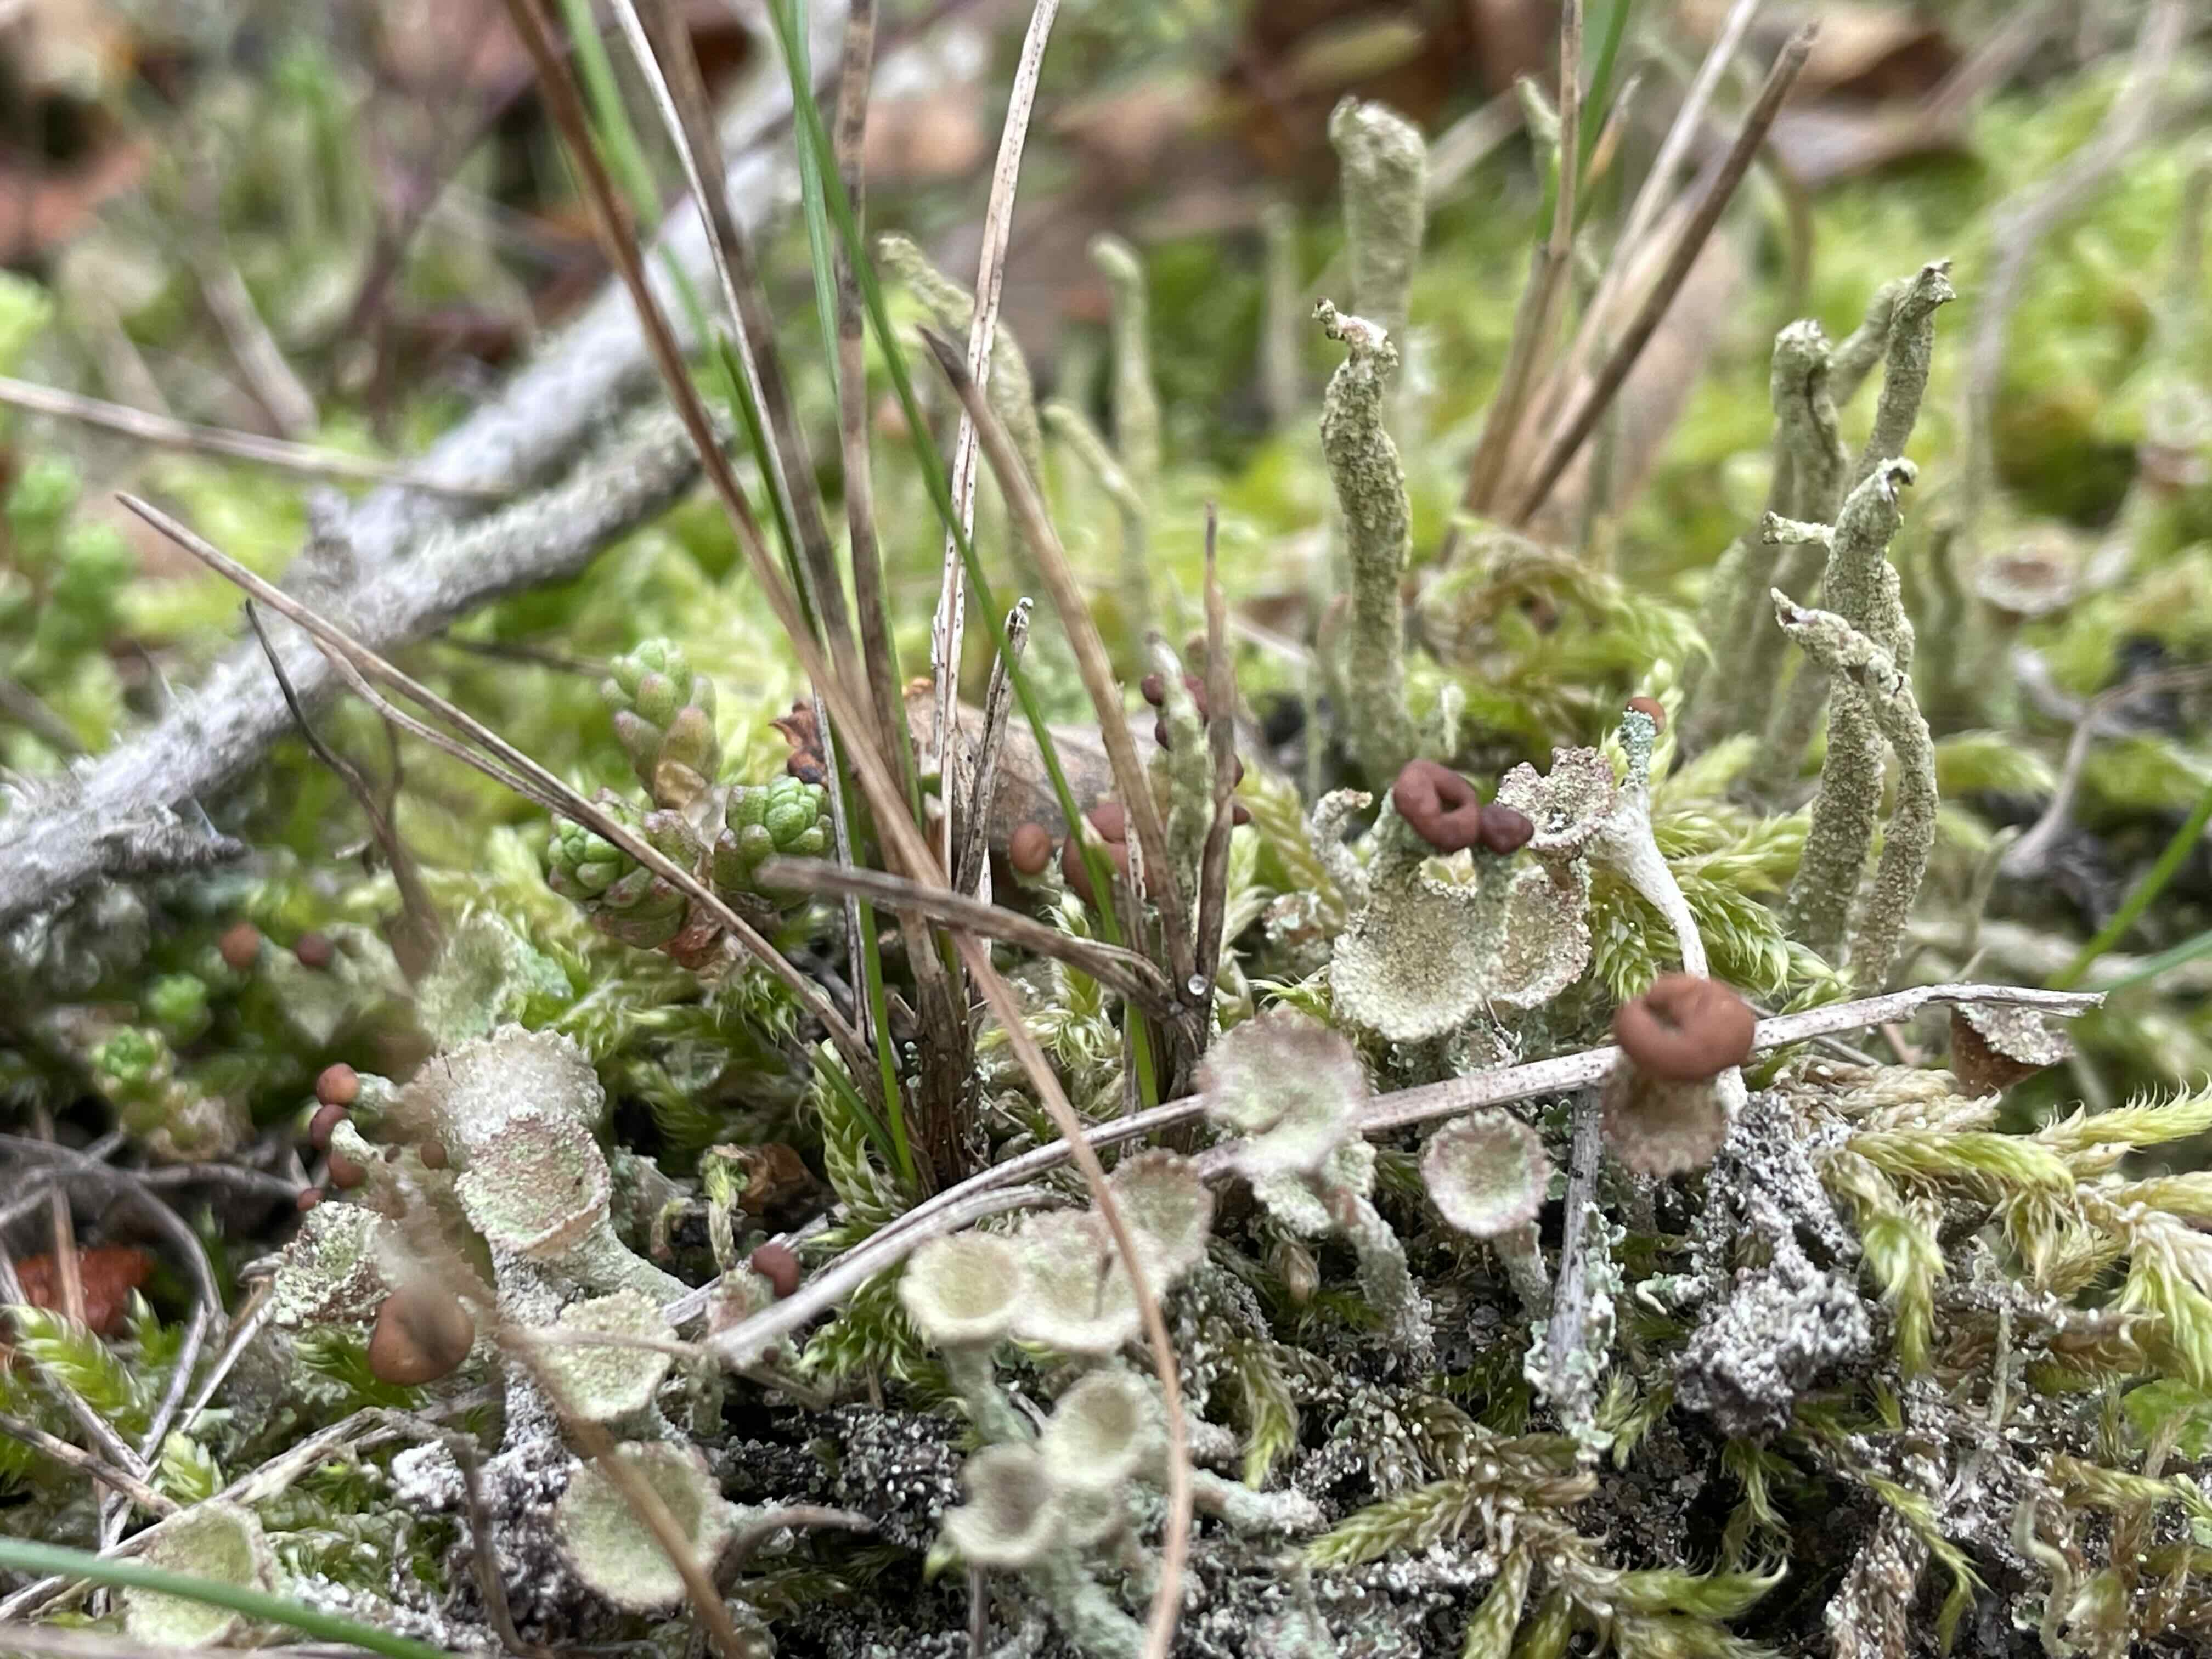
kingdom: Fungi
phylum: Ascomycota
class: Lecanoromycetes
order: Lecanorales
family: Cladoniaceae
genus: Cladonia
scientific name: Cladonia
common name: brungrøn bægerlav
